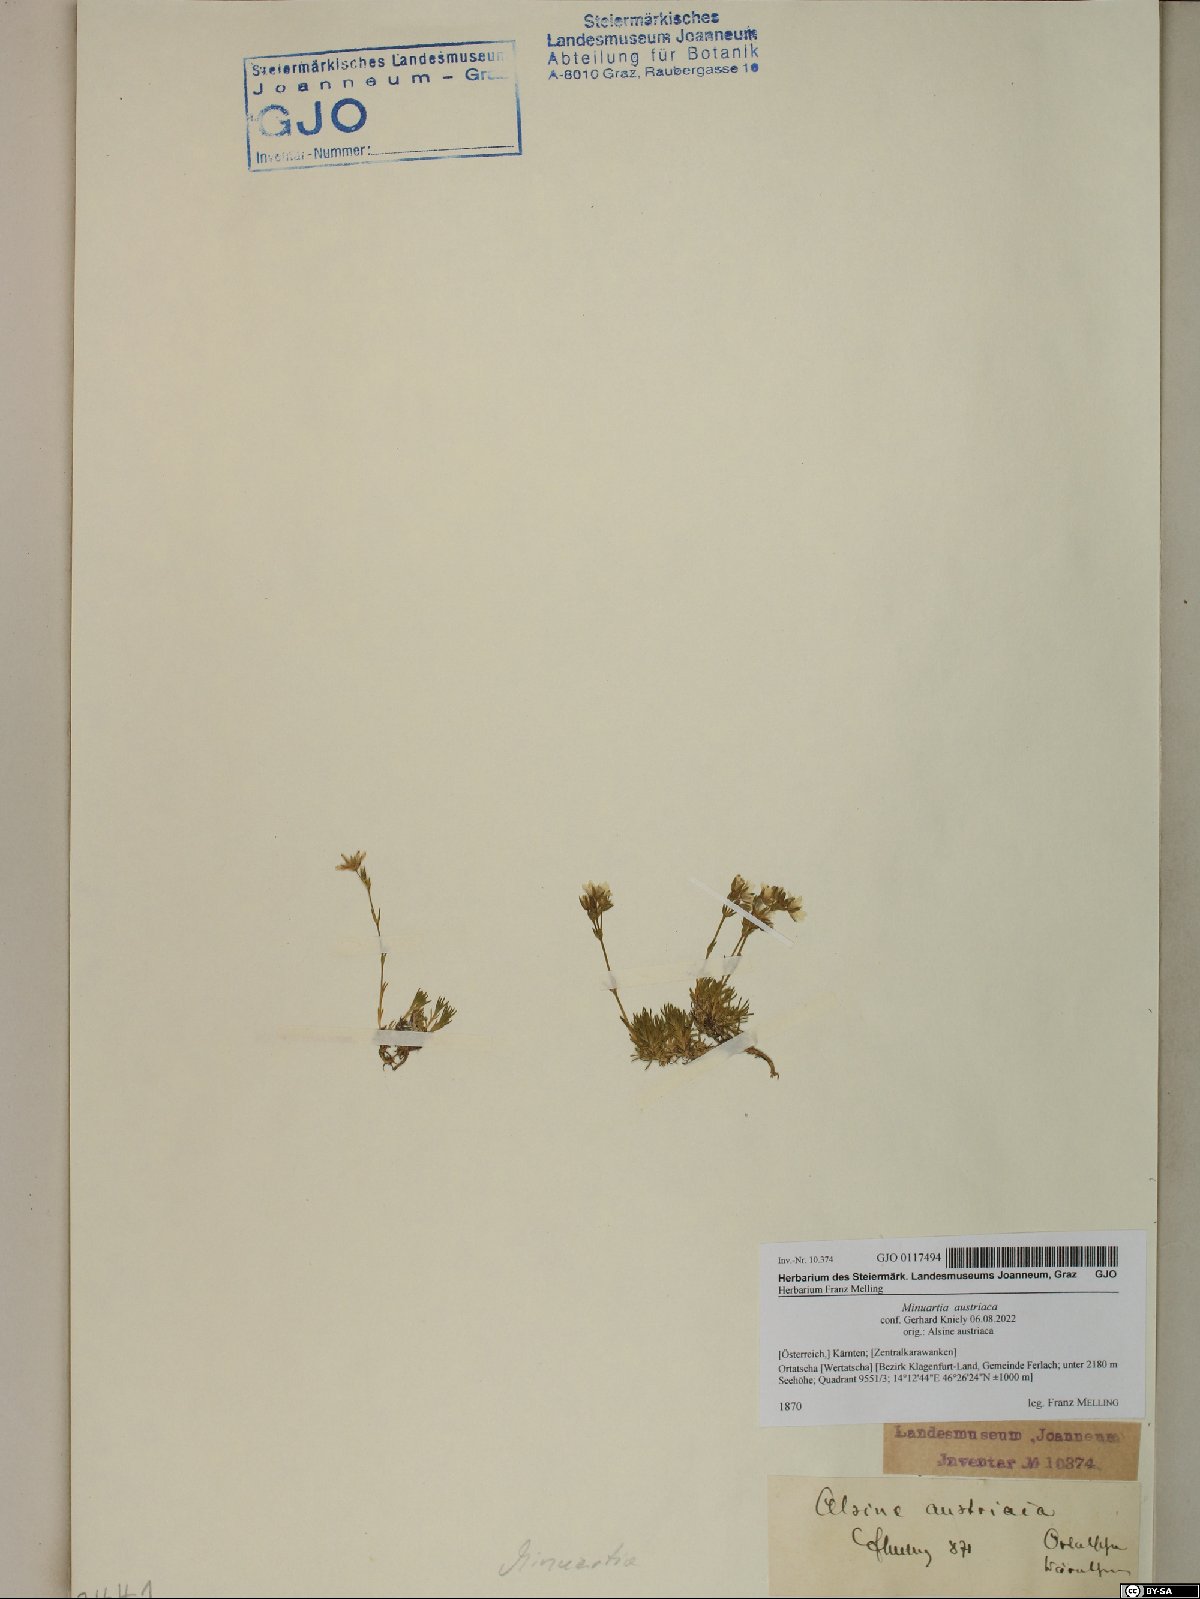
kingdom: Plantae
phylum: Tracheophyta
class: Magnoliopsida
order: Caryophyllales
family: Caryophyllaceae
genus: Sabulina
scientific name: Sabulina austriaca
